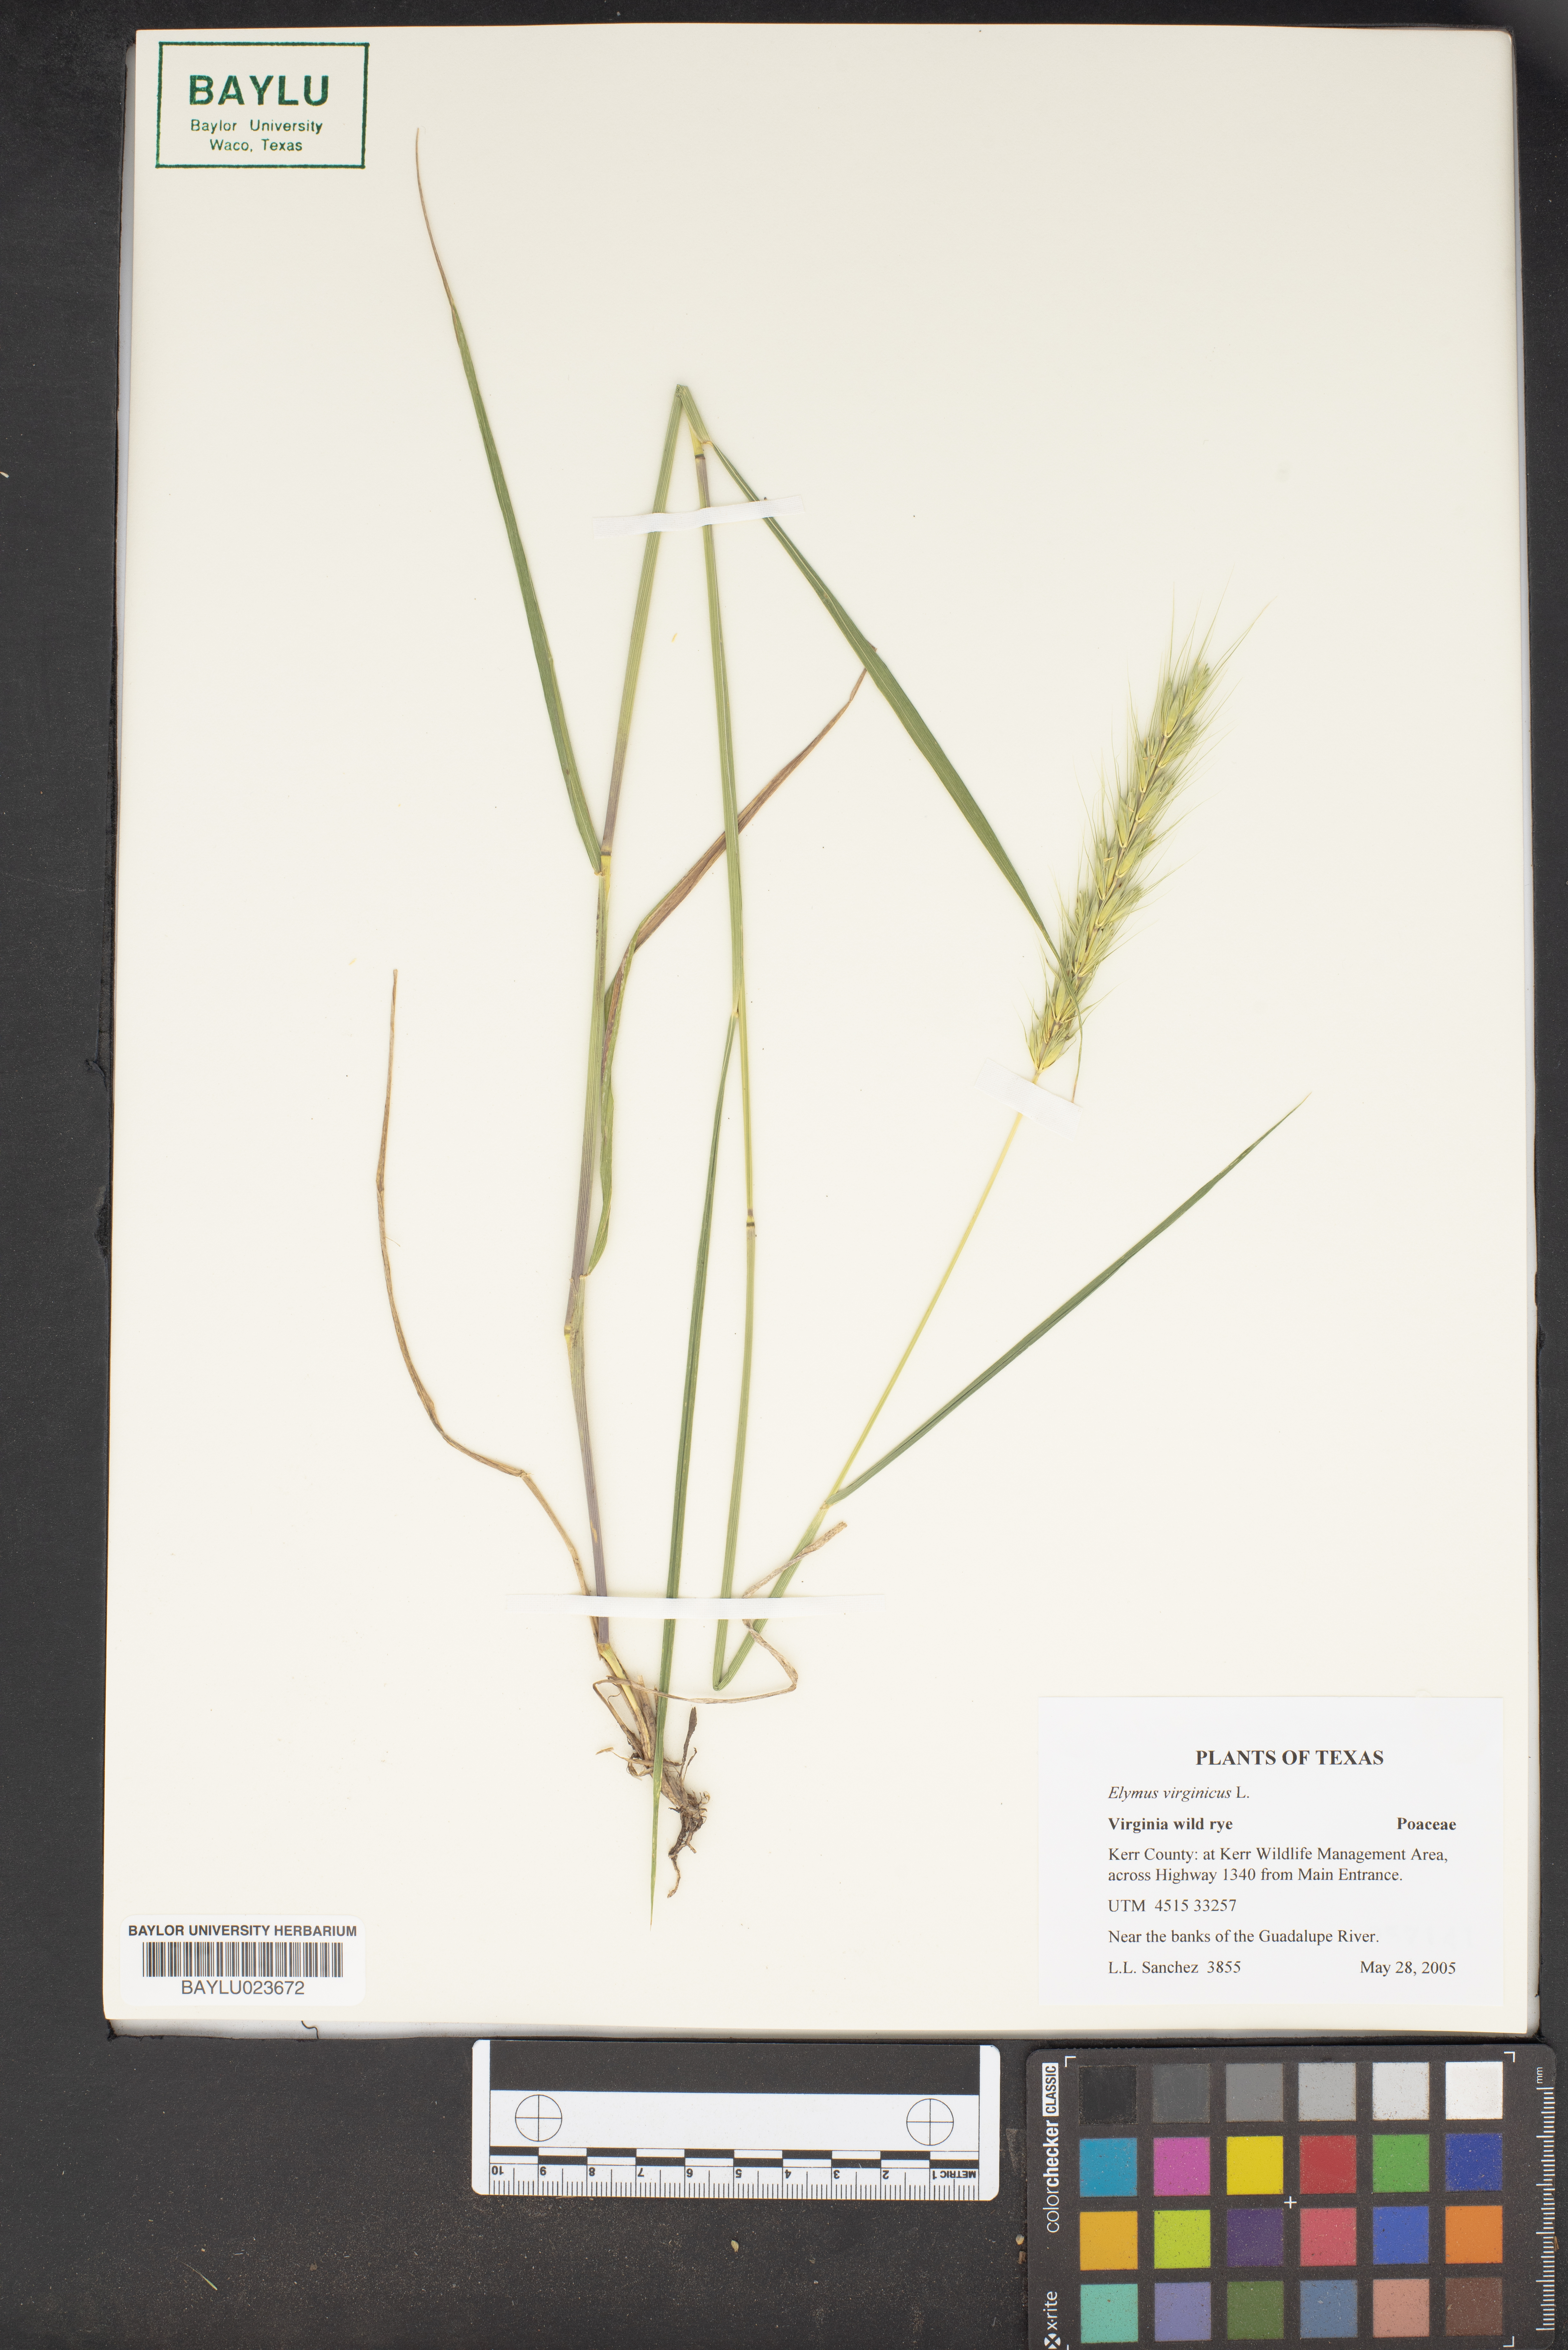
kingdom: Plantae
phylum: Tracheophyta
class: Liliopsida
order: Poales
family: Poaceae
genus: Elymus
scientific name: Elymus virginicus
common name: Common eastern wildrye
